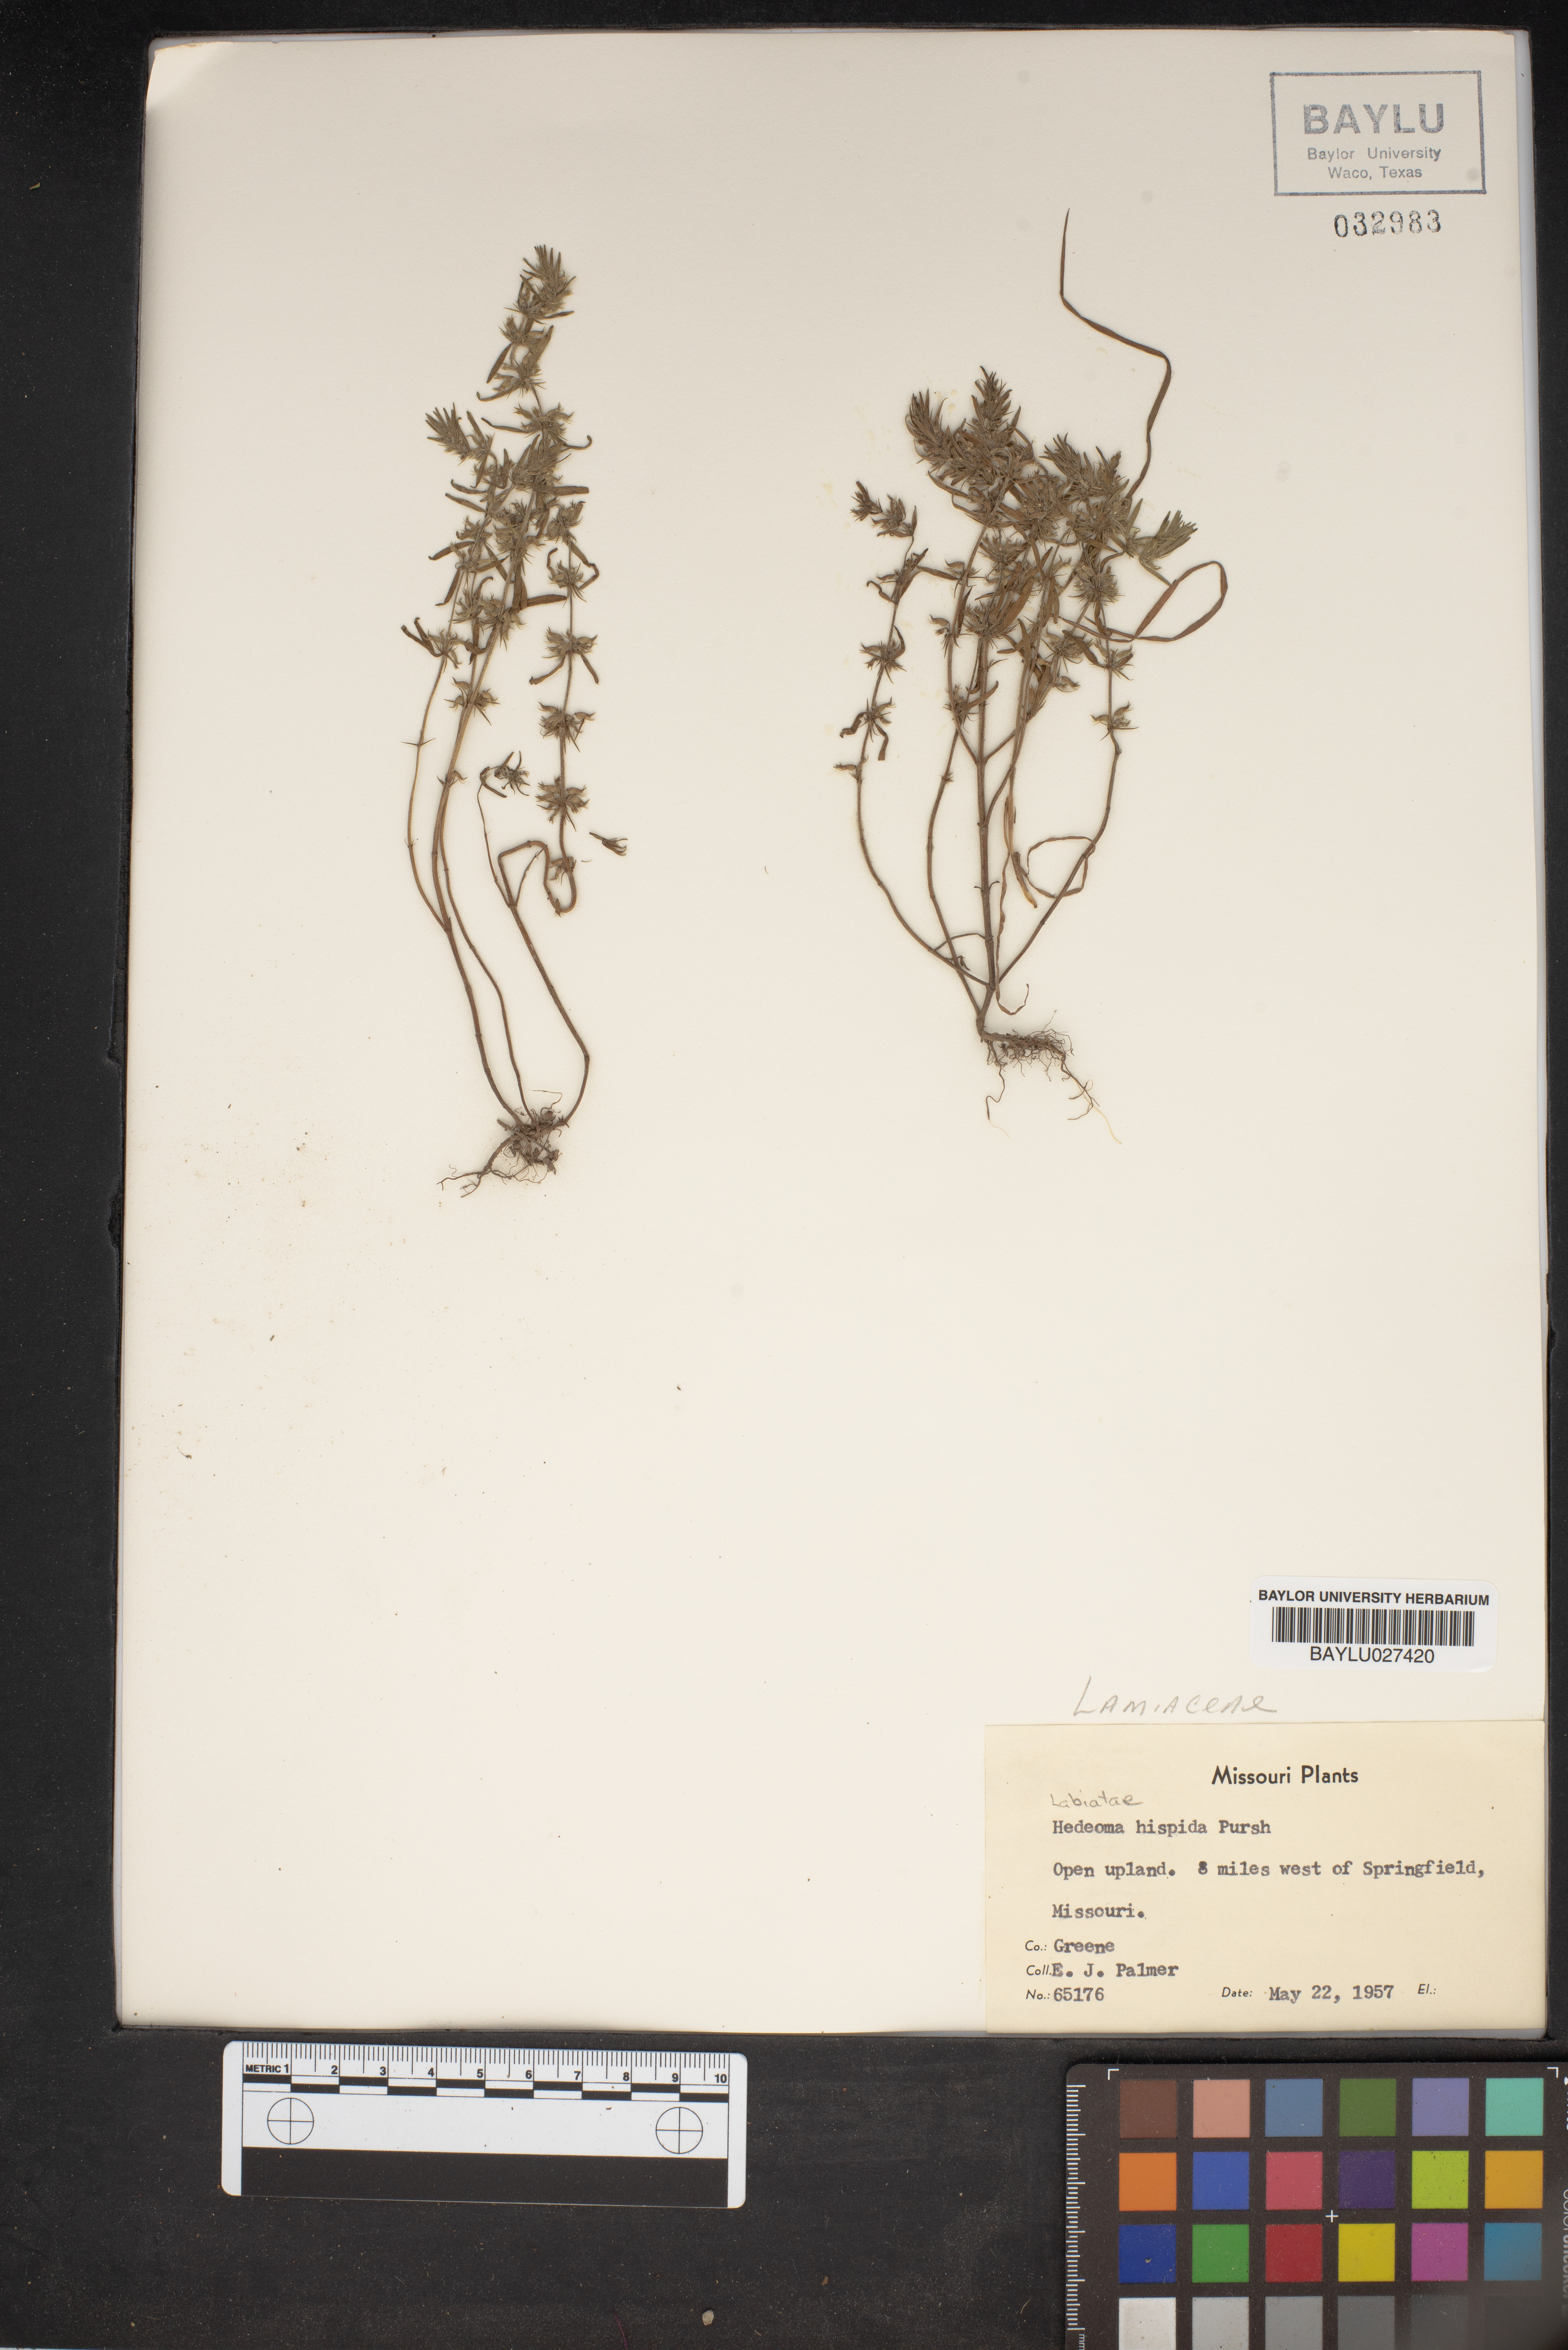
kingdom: Plantae
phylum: Tracheophyta
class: Magnoliopsida
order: Lamiales
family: Lamiaceae
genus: Hedeoma
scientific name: Hedeoma hispida
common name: Mock pennyroyal
